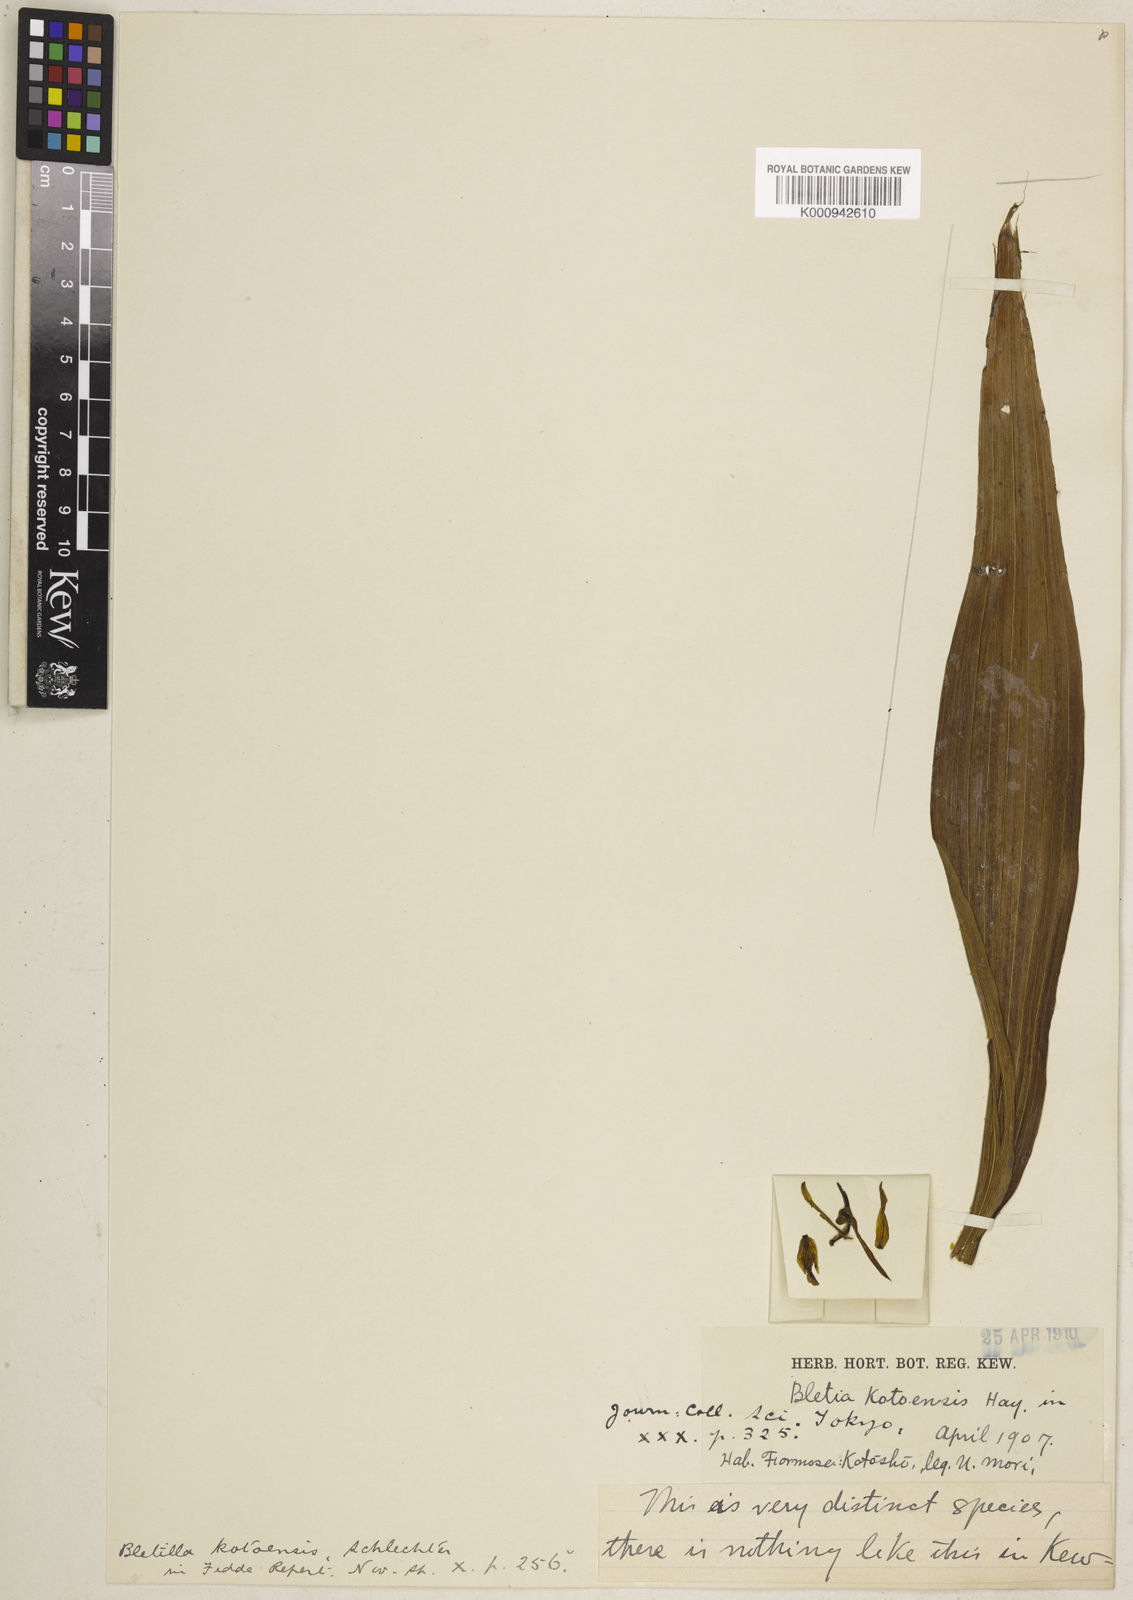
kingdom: Plantae
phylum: Tracheophyta
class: Liliopsida
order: Asparagales
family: Orchidaceae
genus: Bletilla
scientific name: Bletilla formosana
